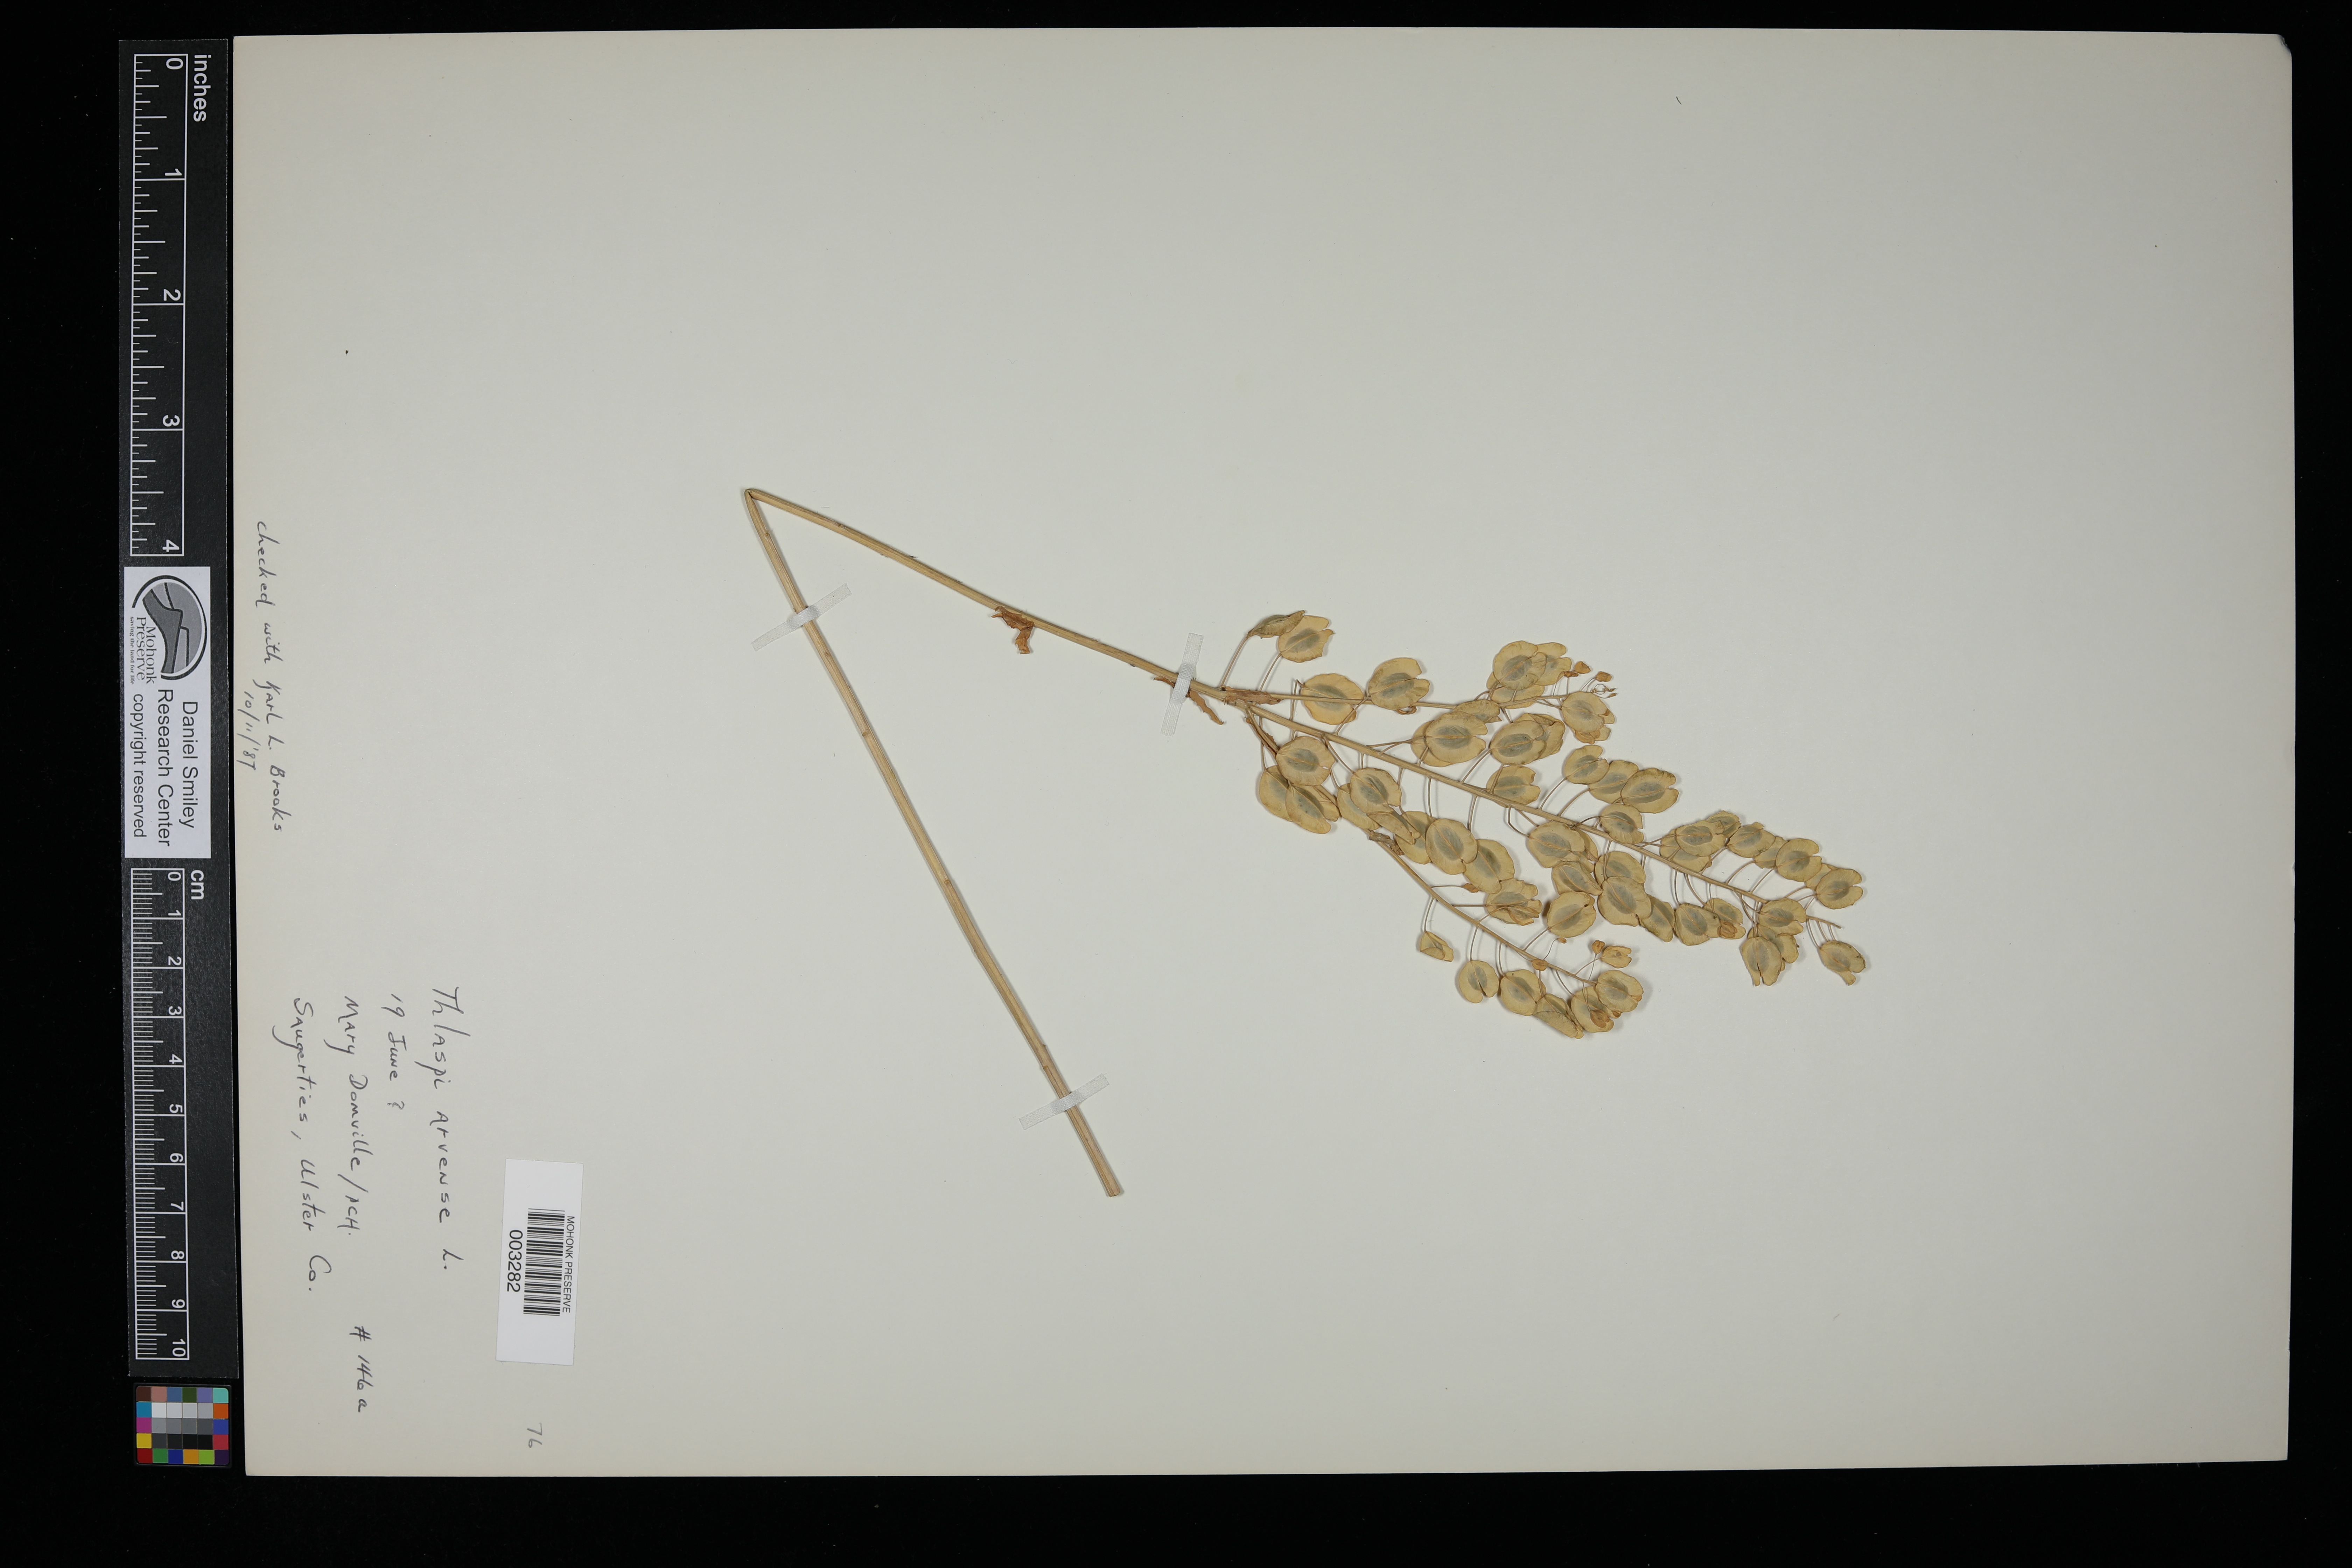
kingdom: Plantae
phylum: Tracheophyta
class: Magnoliopsida
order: Brassicales
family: Brassicaceae
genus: Thlaspi
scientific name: Thlaspi arvense
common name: Field pennycress
